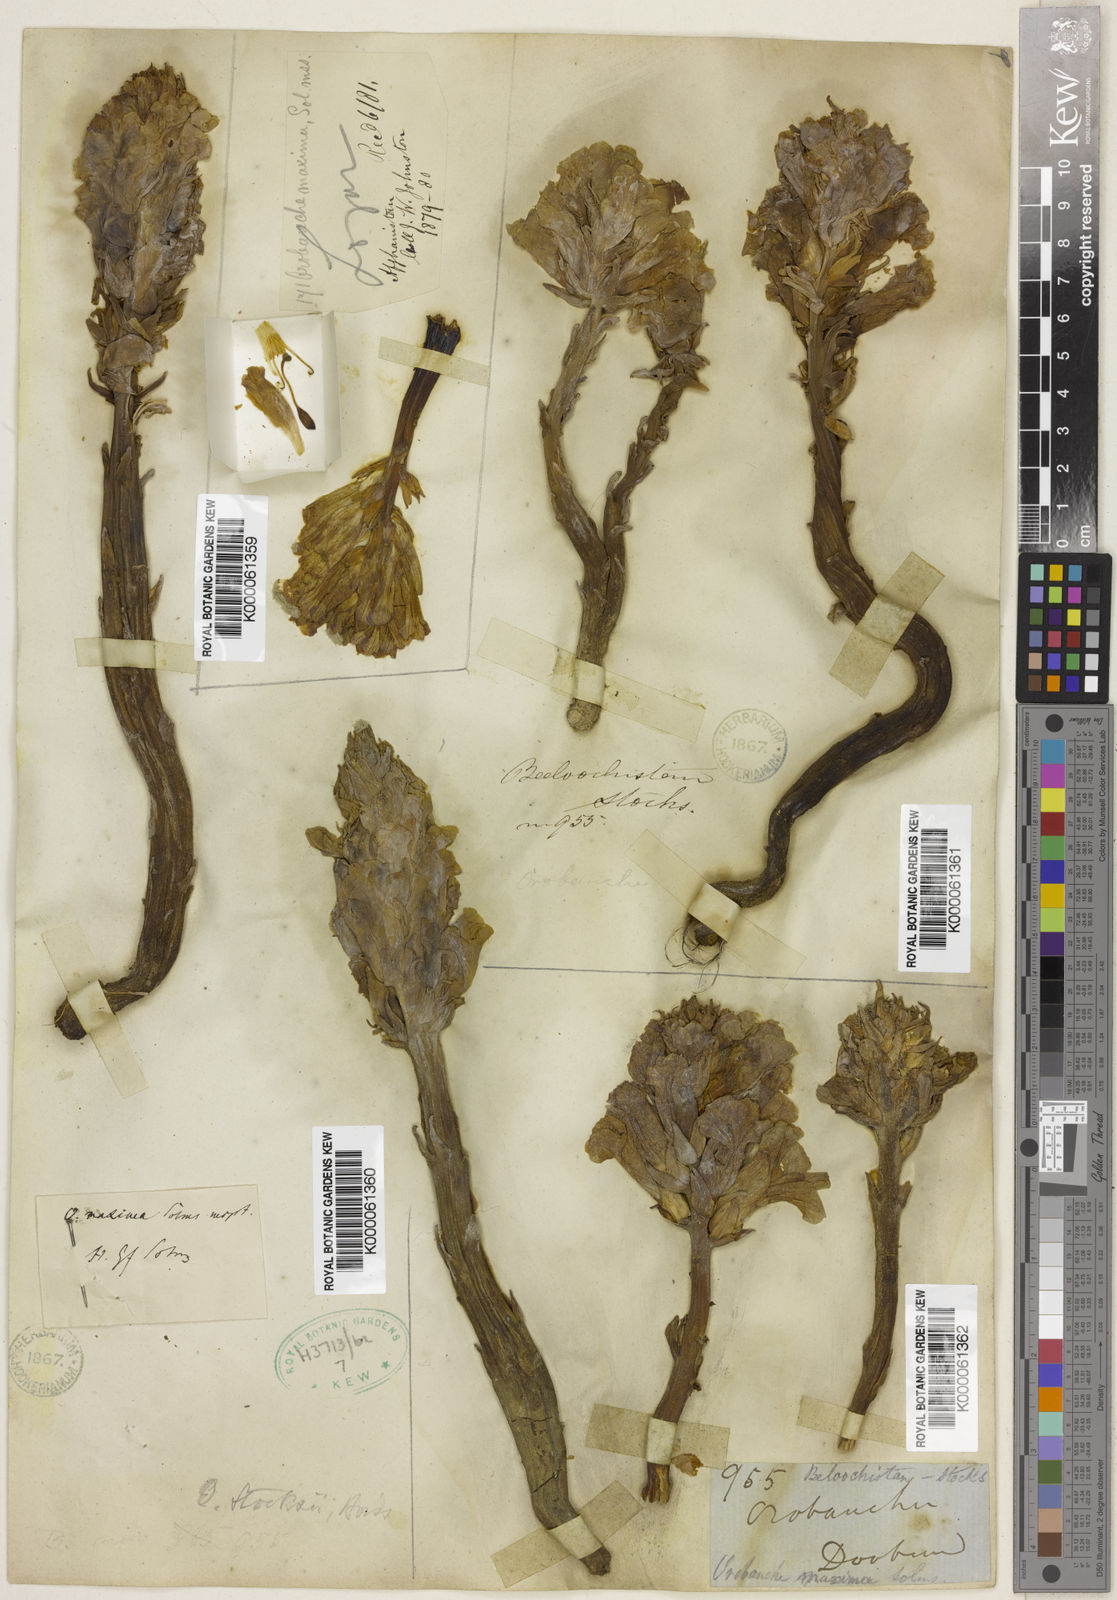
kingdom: Plantae
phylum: Tracheophyta
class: Magnoliopsida
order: Lamiales
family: Orobanchaceae
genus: Orobanche
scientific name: Orobanche stocksii
